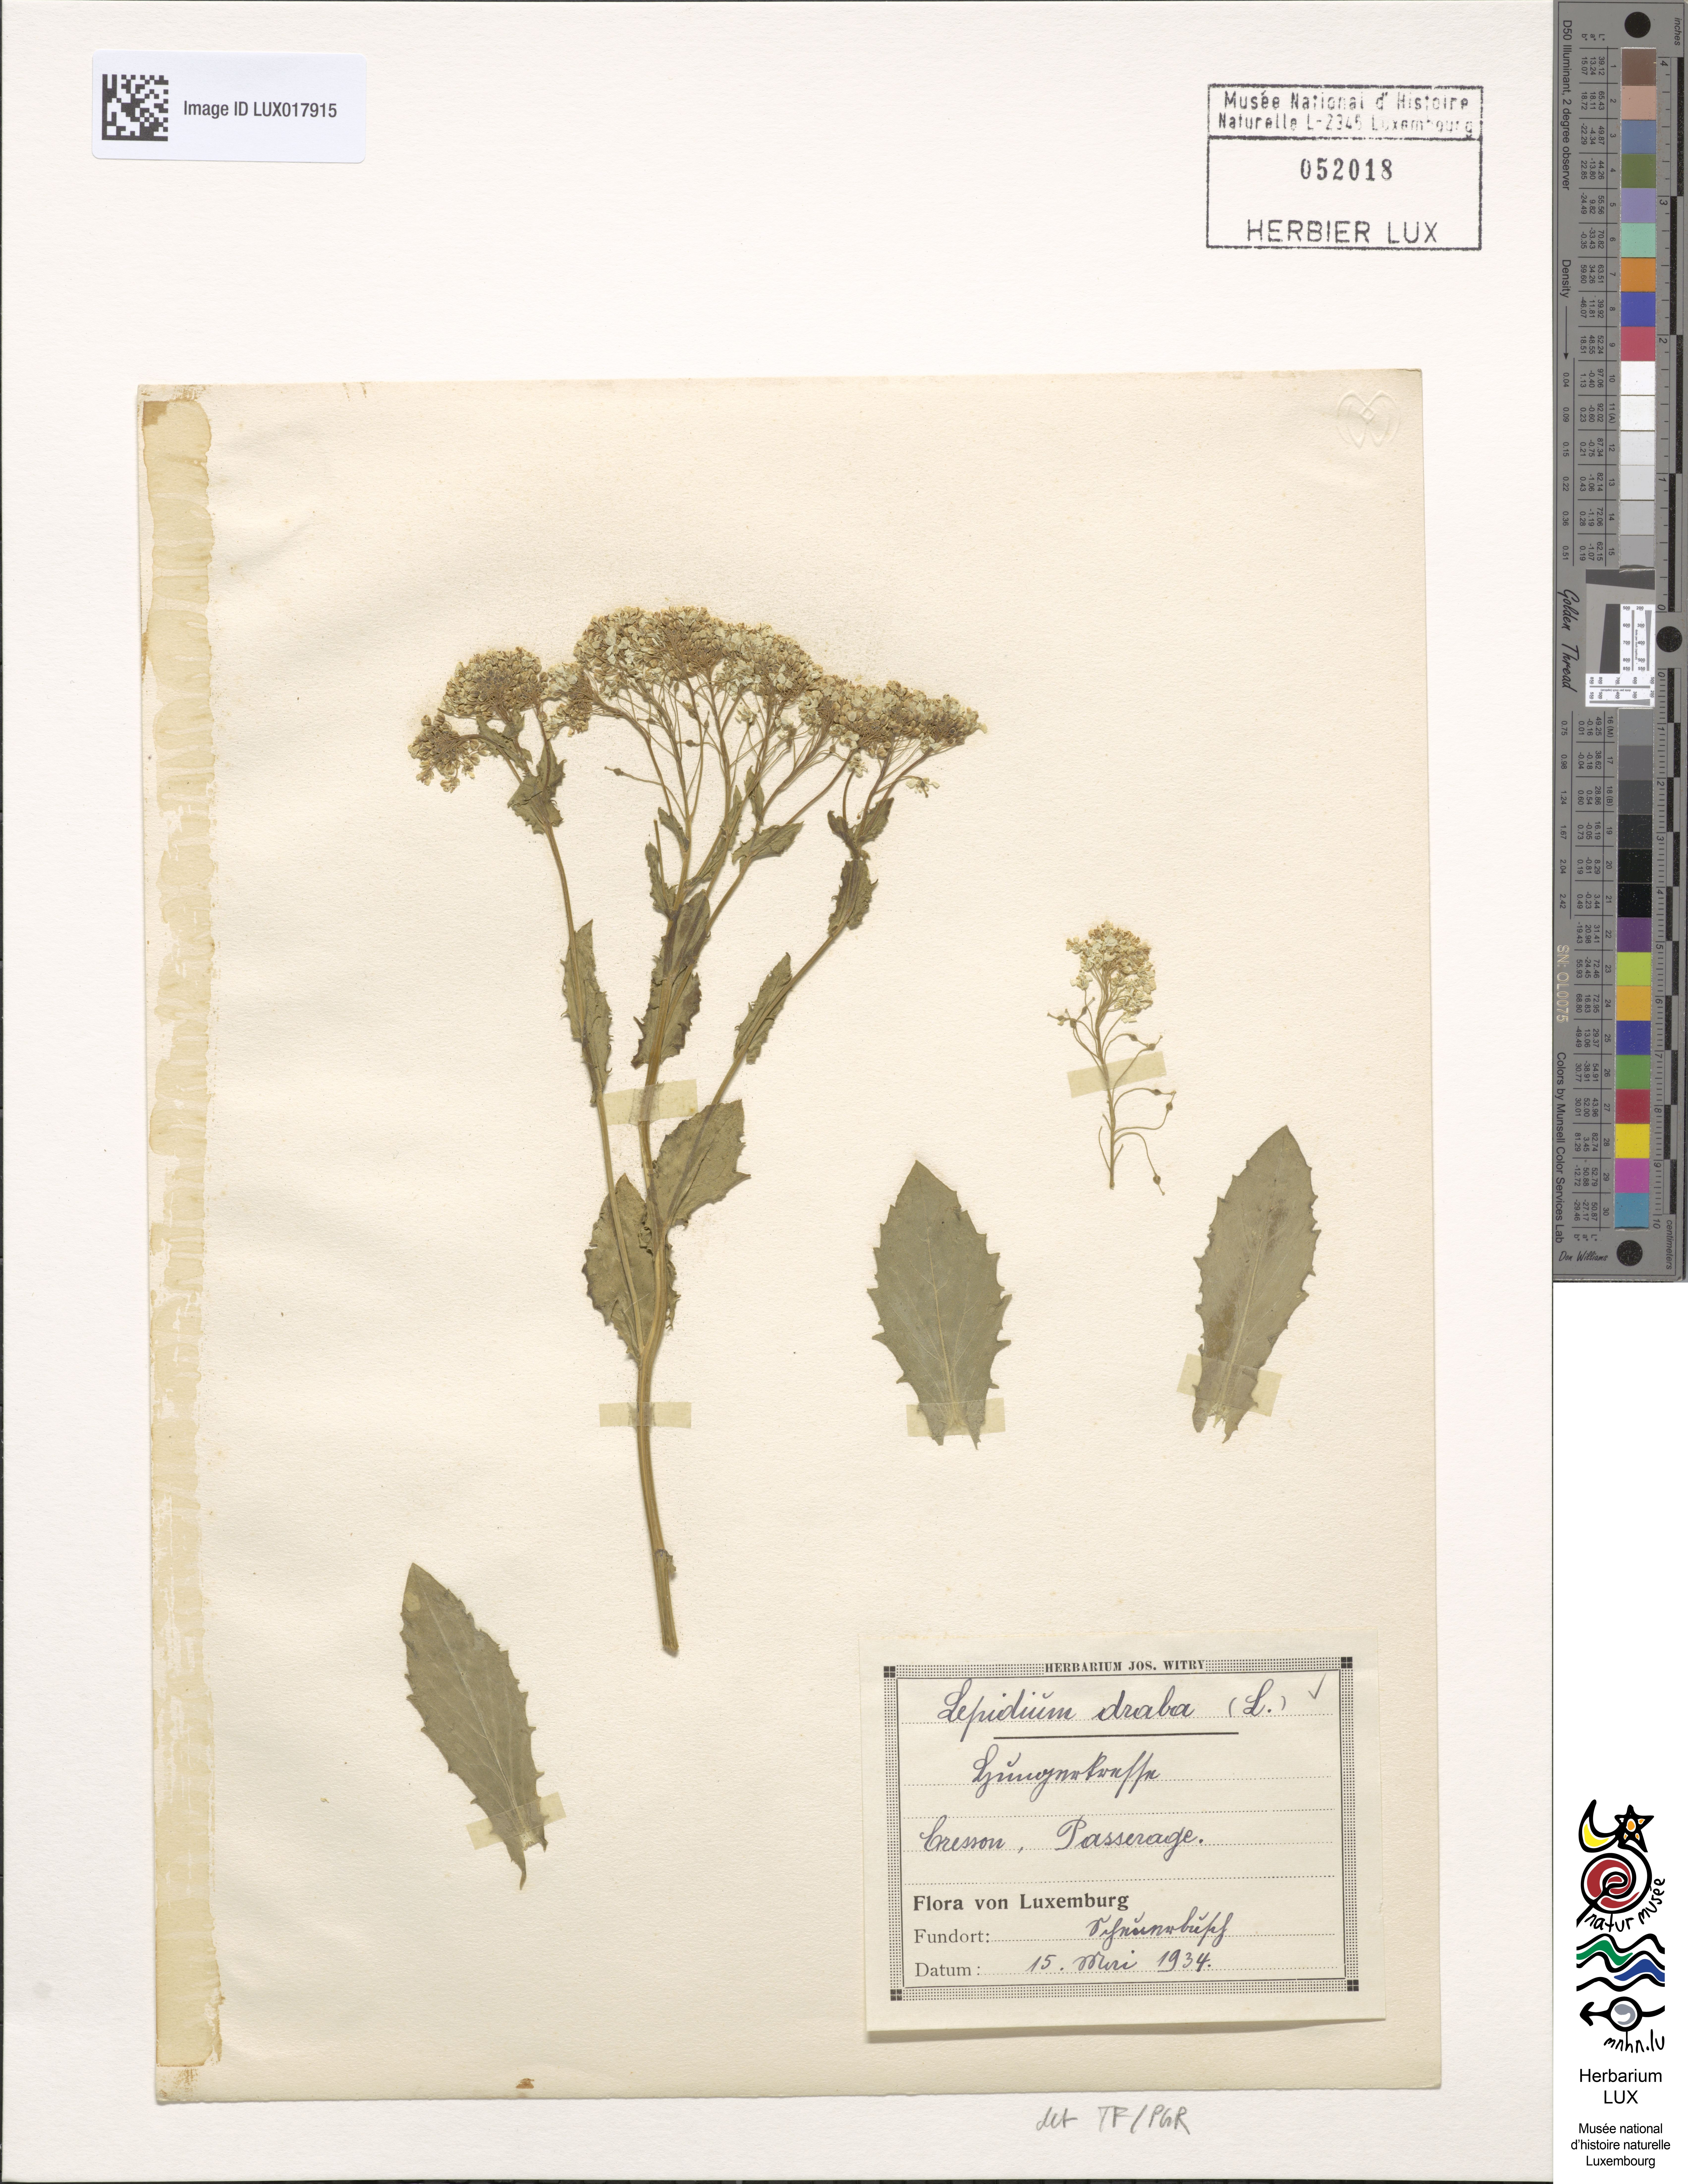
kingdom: Plantae
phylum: Tracheophyta
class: Magnoliopsida
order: Brassicales
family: Brassicaceae
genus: Lepidium
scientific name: Lepidium draba
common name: Hoary cress
